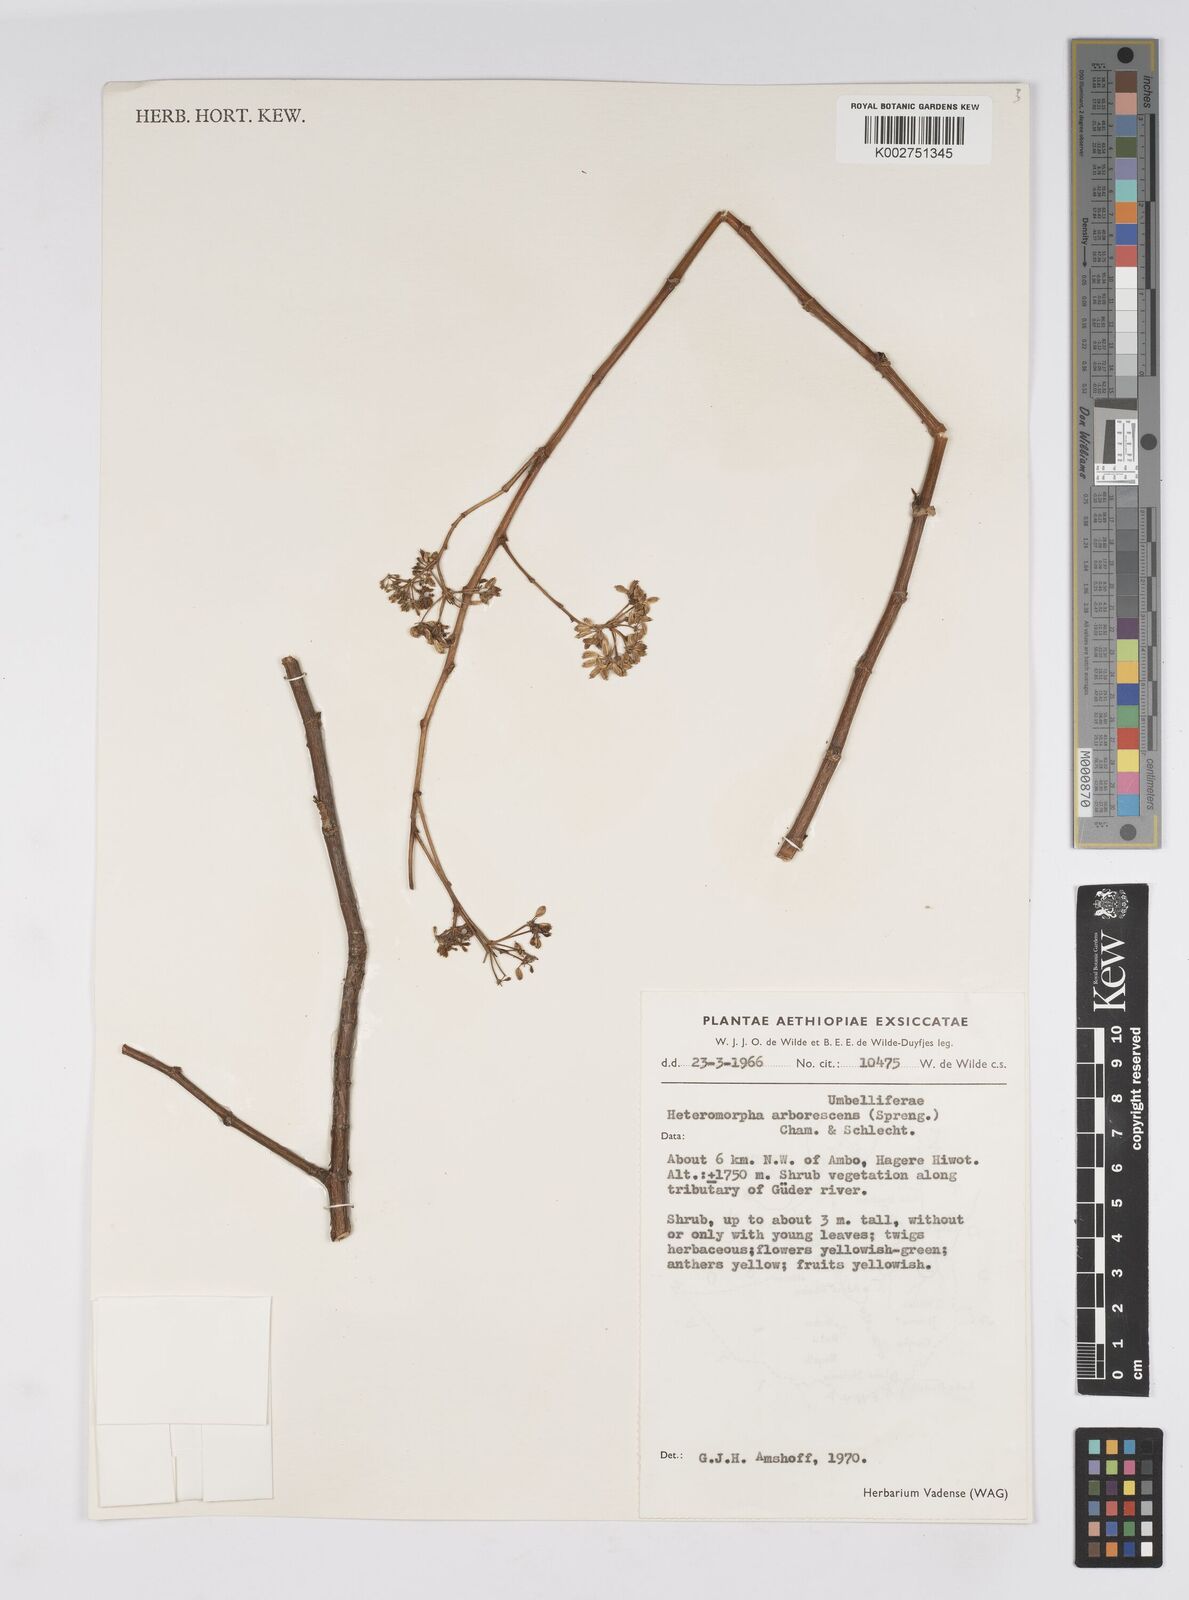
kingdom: Plantae
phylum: Tracheophyta
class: Magnoliopsida
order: Apiales
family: Apiaceae
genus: Heteromorpha
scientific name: Heteromorpha
